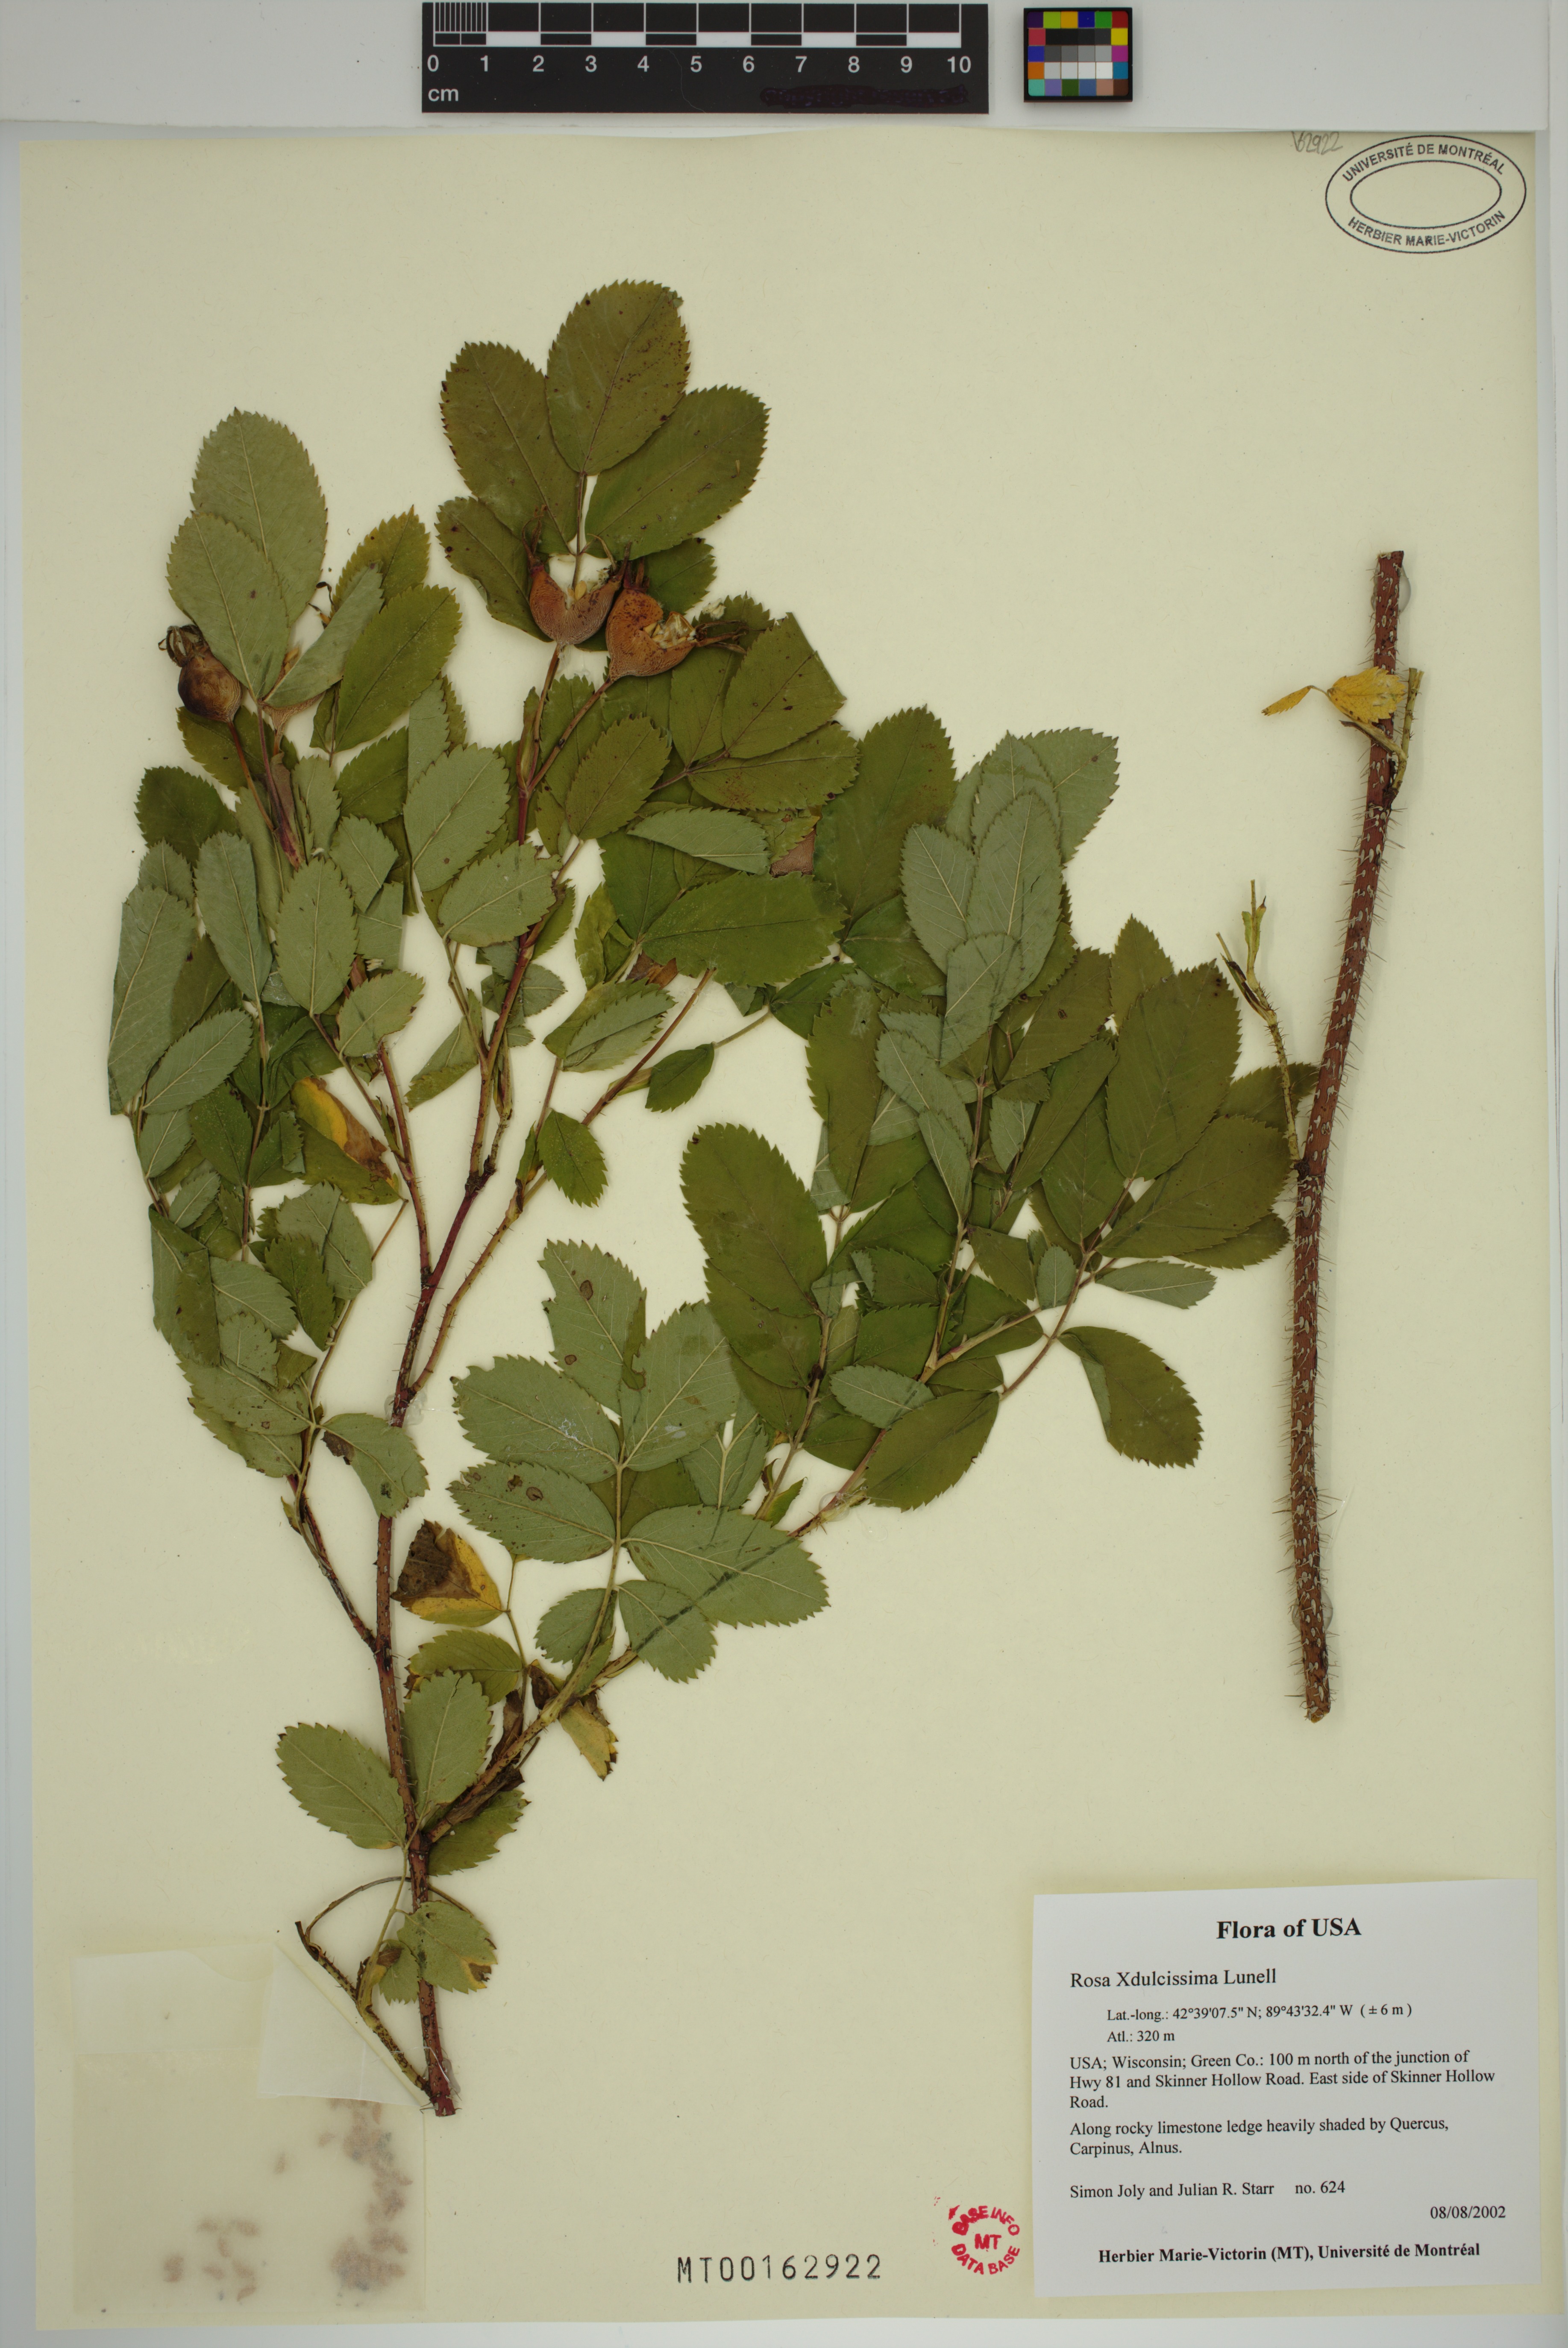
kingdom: Plantae
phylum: Tracheophyta
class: Magnoliopsida
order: Rosales
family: Rosaceae
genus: Rosa
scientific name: Rosa blanda
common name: Smooth rose
